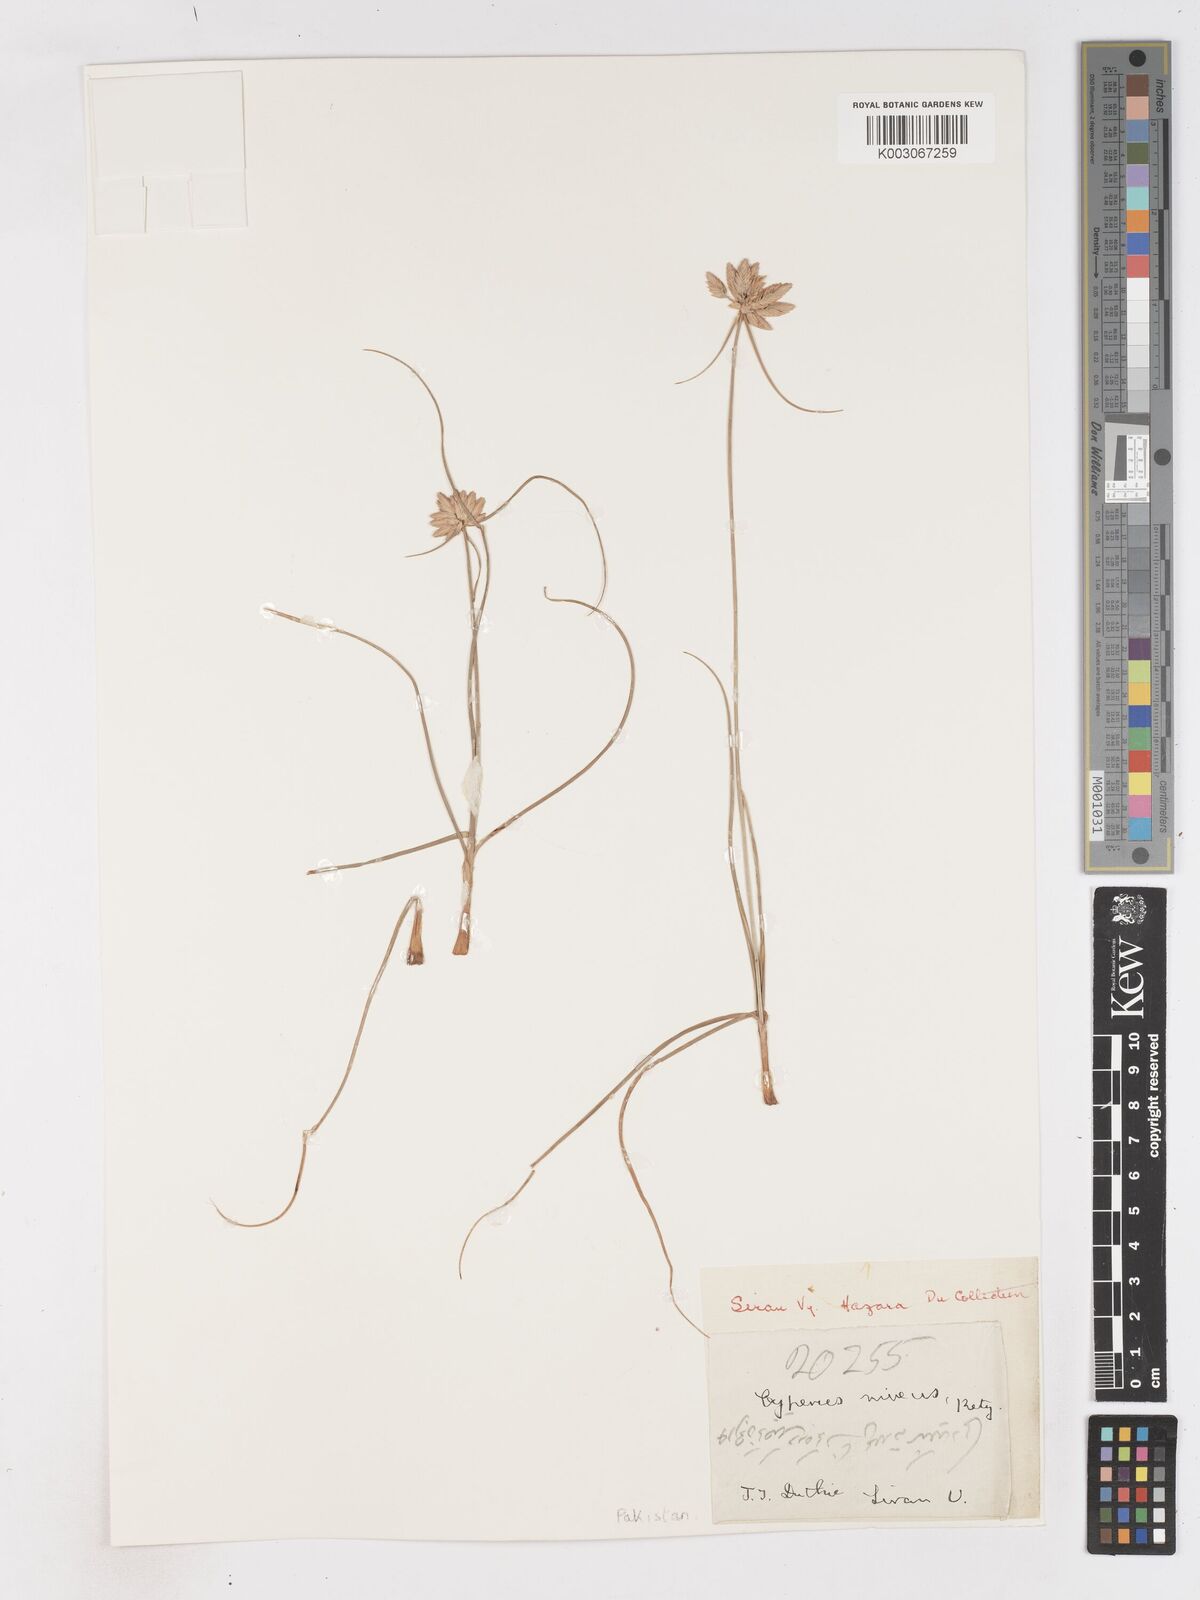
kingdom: Plantae
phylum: Tracheophyta
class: Liliopsida
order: Poales
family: Cyperaceae
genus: Cyperus
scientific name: Cyperus niveus
